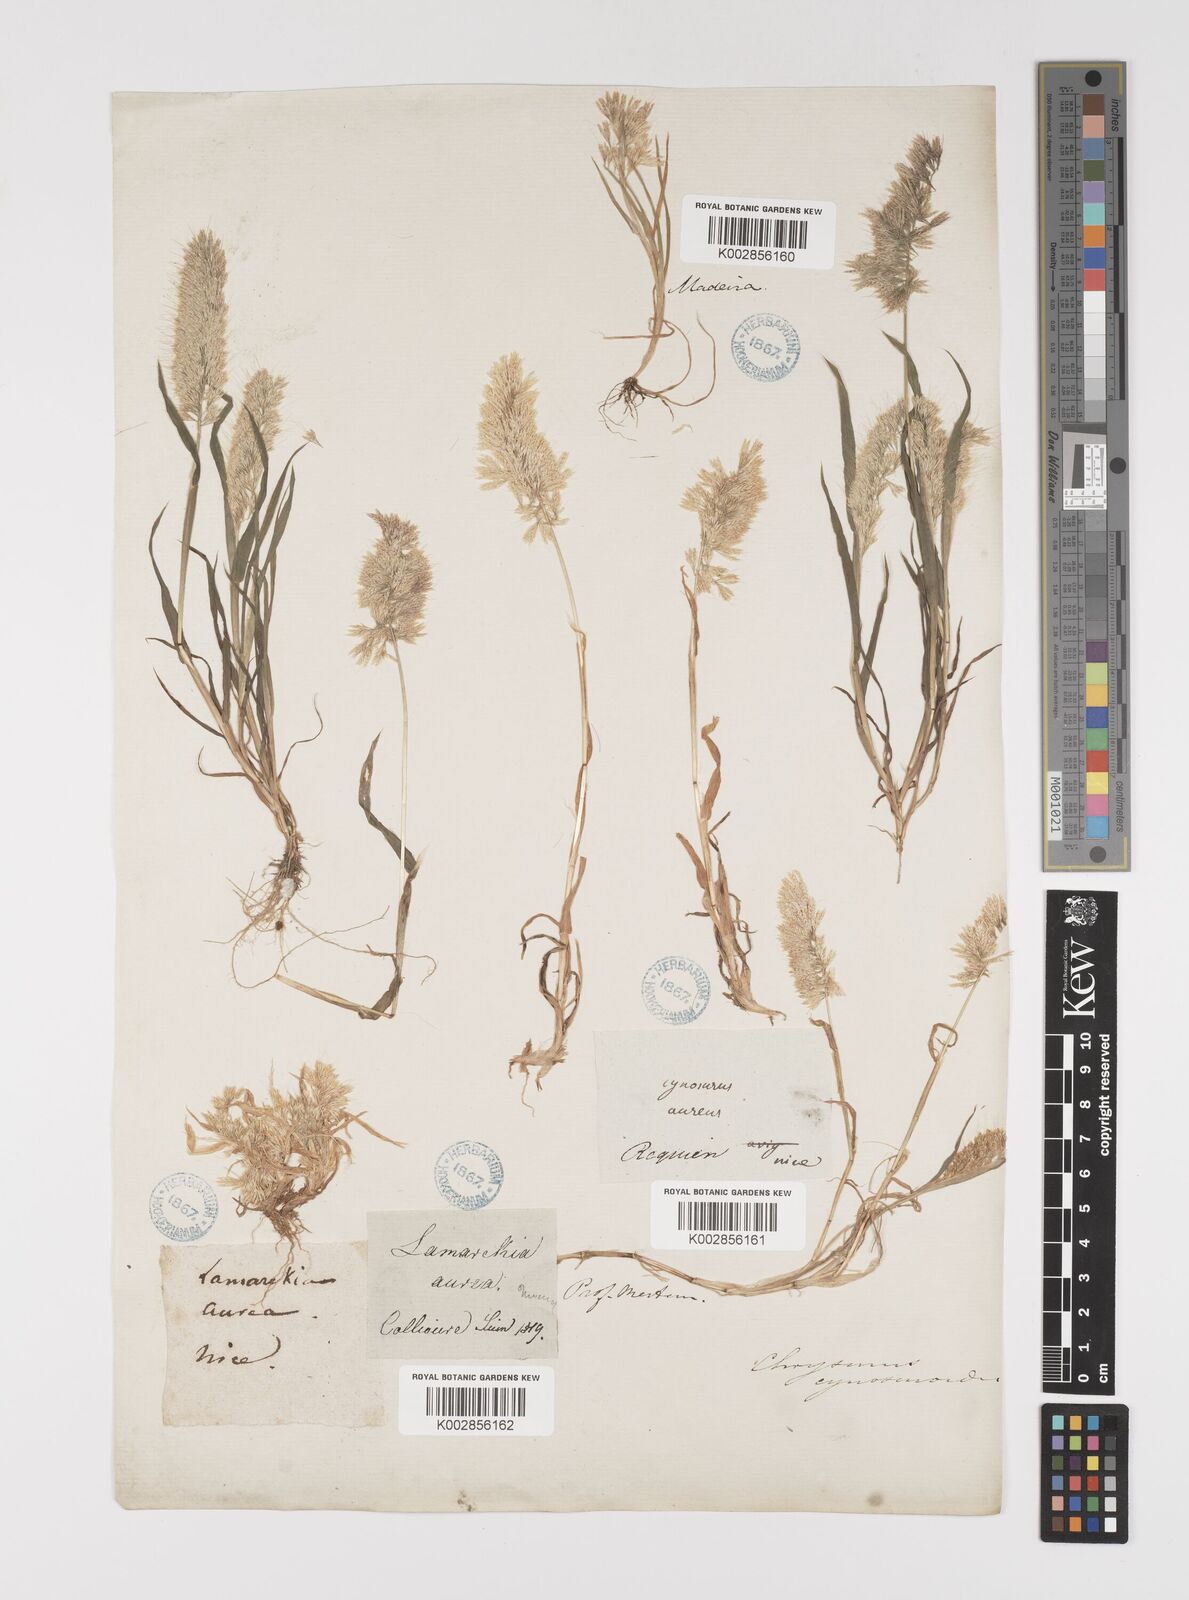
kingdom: Plantae
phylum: Tracheophyta
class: Liliopsida
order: Poales
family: Poaceae
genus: Lamarckia
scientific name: Lamarckia aurea
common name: Golden dog's-tail
